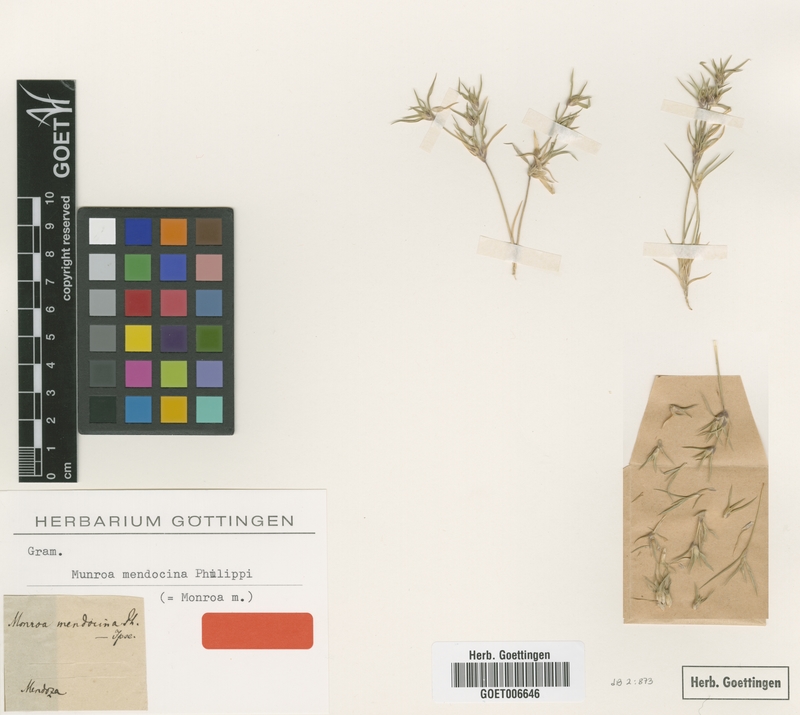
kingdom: Plantae
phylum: Tracheophyta
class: Liliopsida
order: Poales
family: Poaceae
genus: Munroa
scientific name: Munroa mendocina
